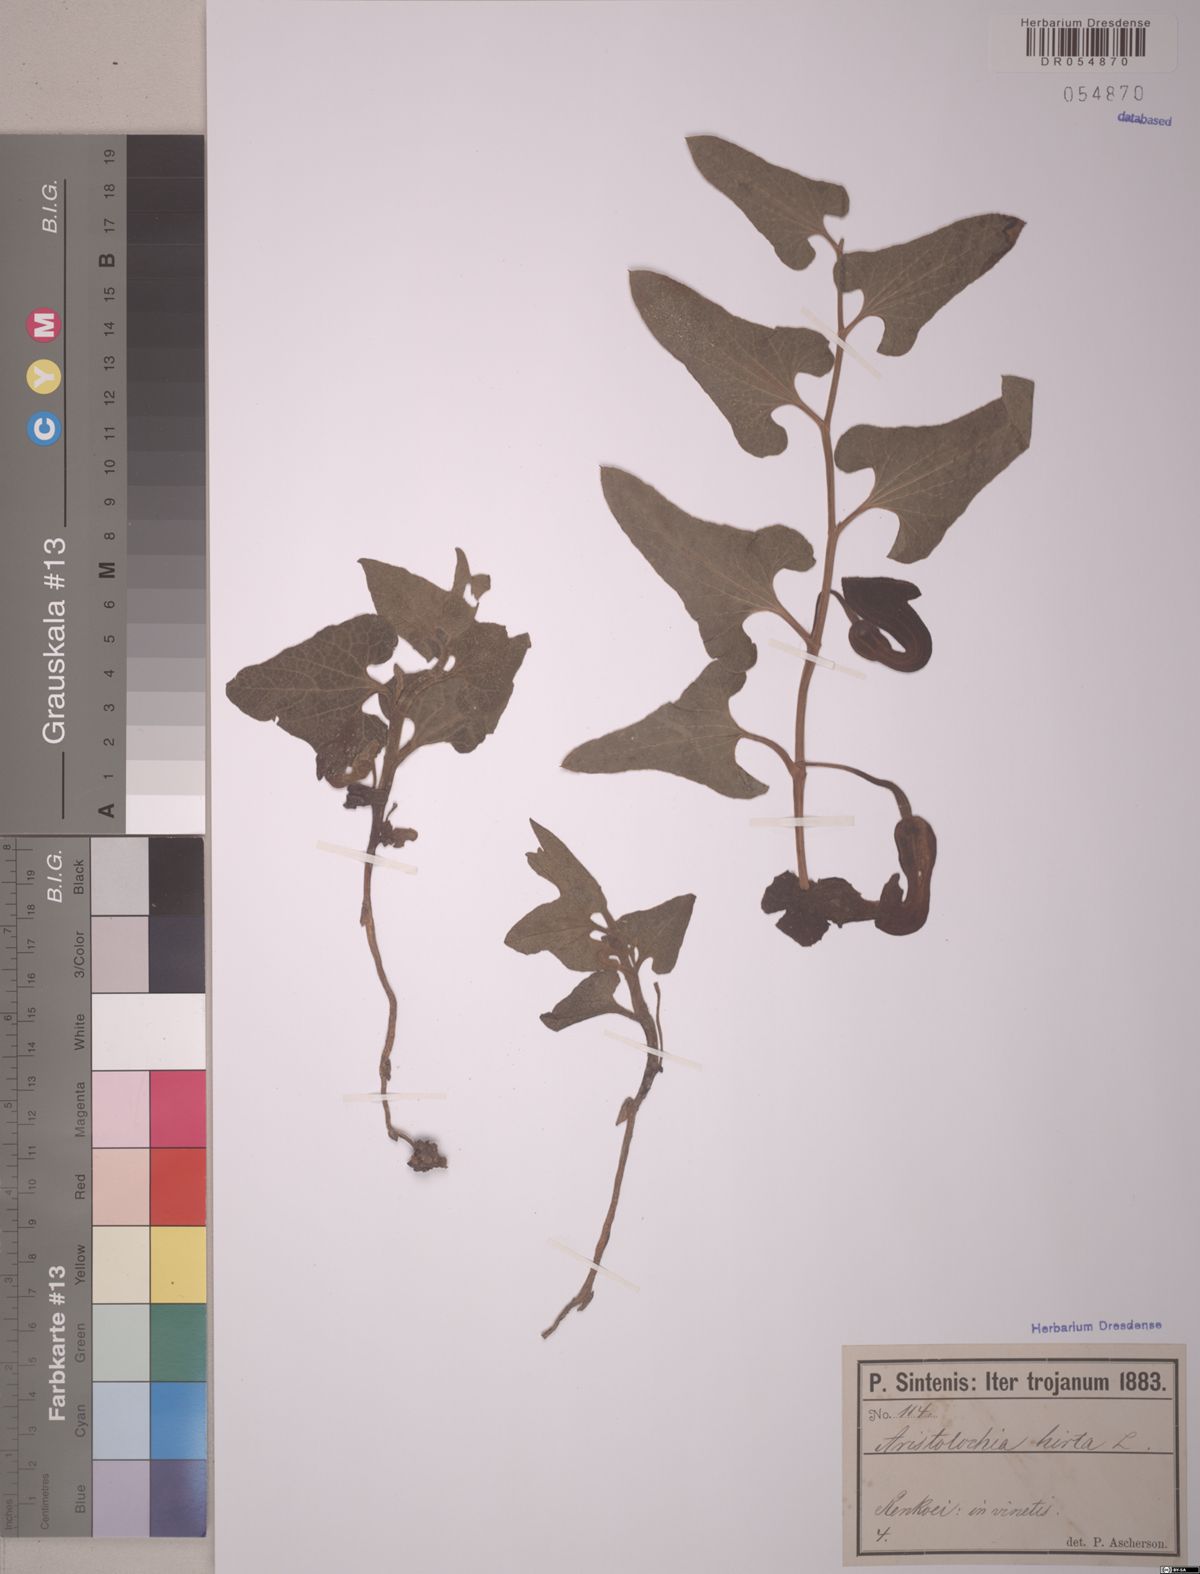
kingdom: Plantae
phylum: Tracheophyta
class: Magnoliopsida
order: Piperales
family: Aristolochiaceae
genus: Aristolochia
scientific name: Aristolochia hirta
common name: Breckland birthwort
